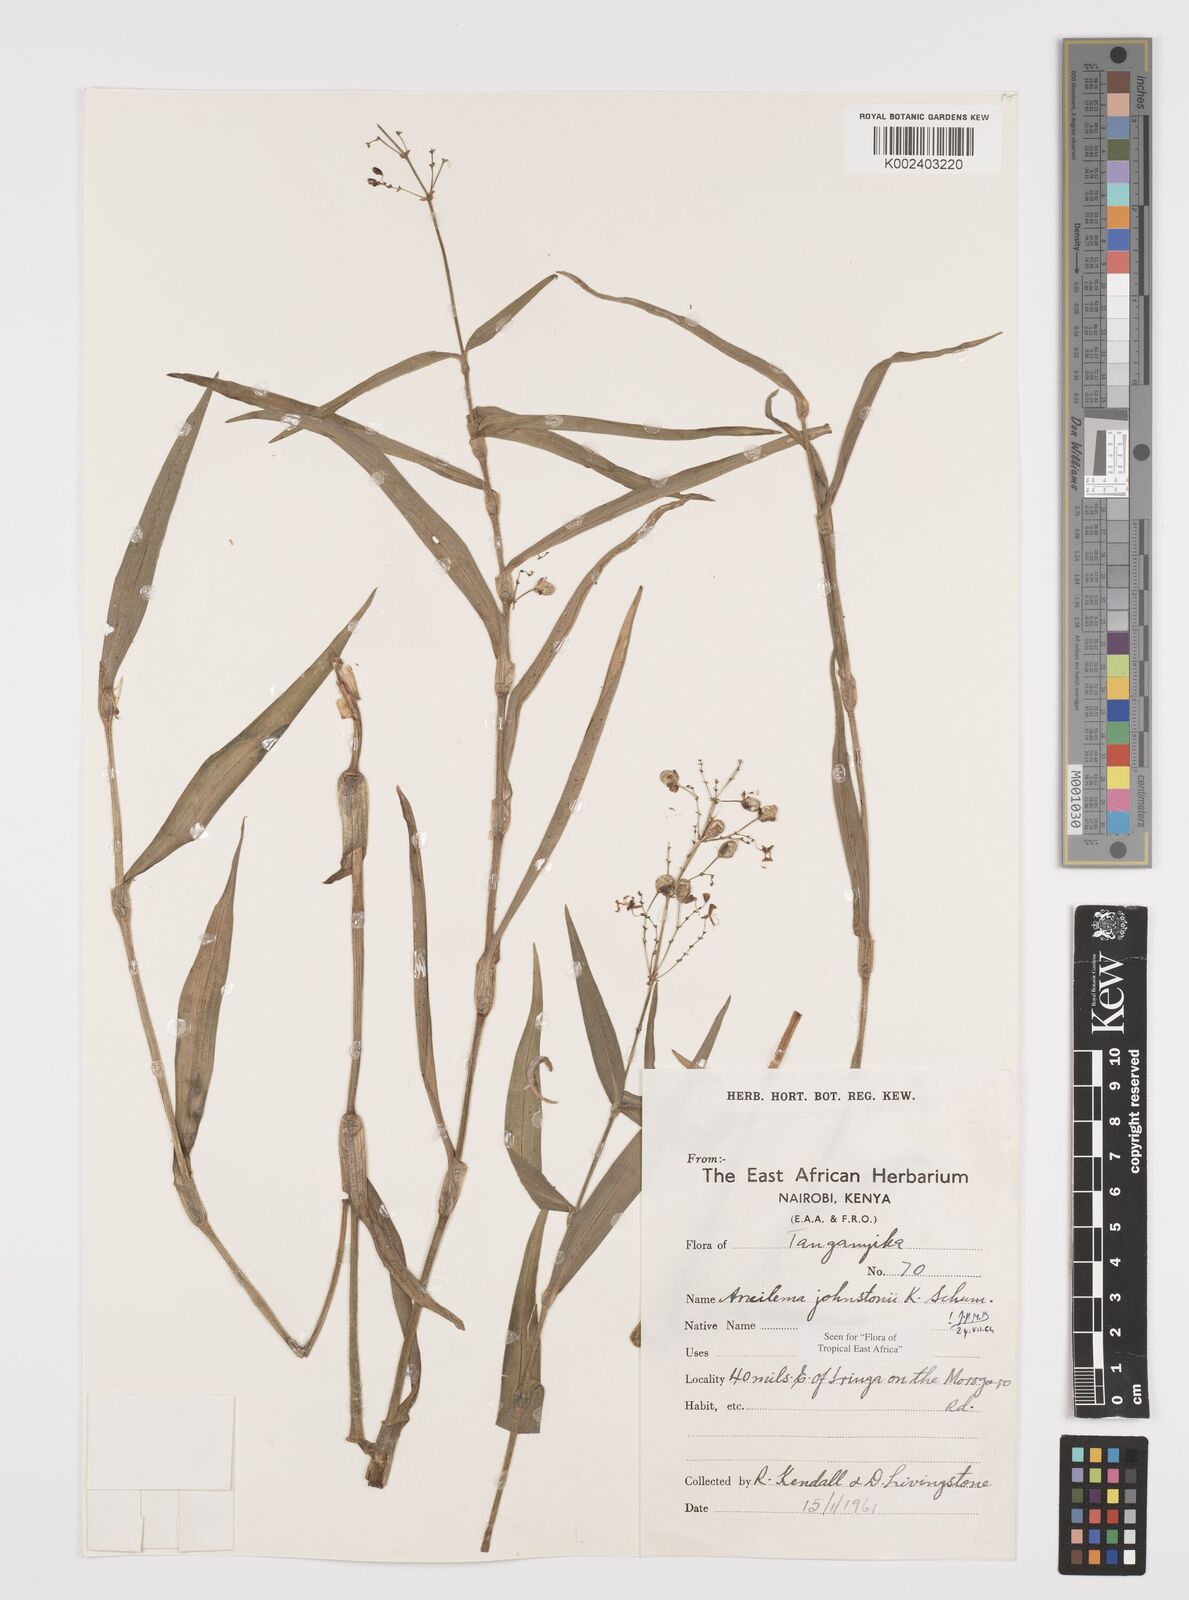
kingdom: Plantae
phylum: Tracheophyta
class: Liliopsida
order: Commelinales
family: Commelinaceae
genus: Aneilema
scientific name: Aneilema johnstonii
